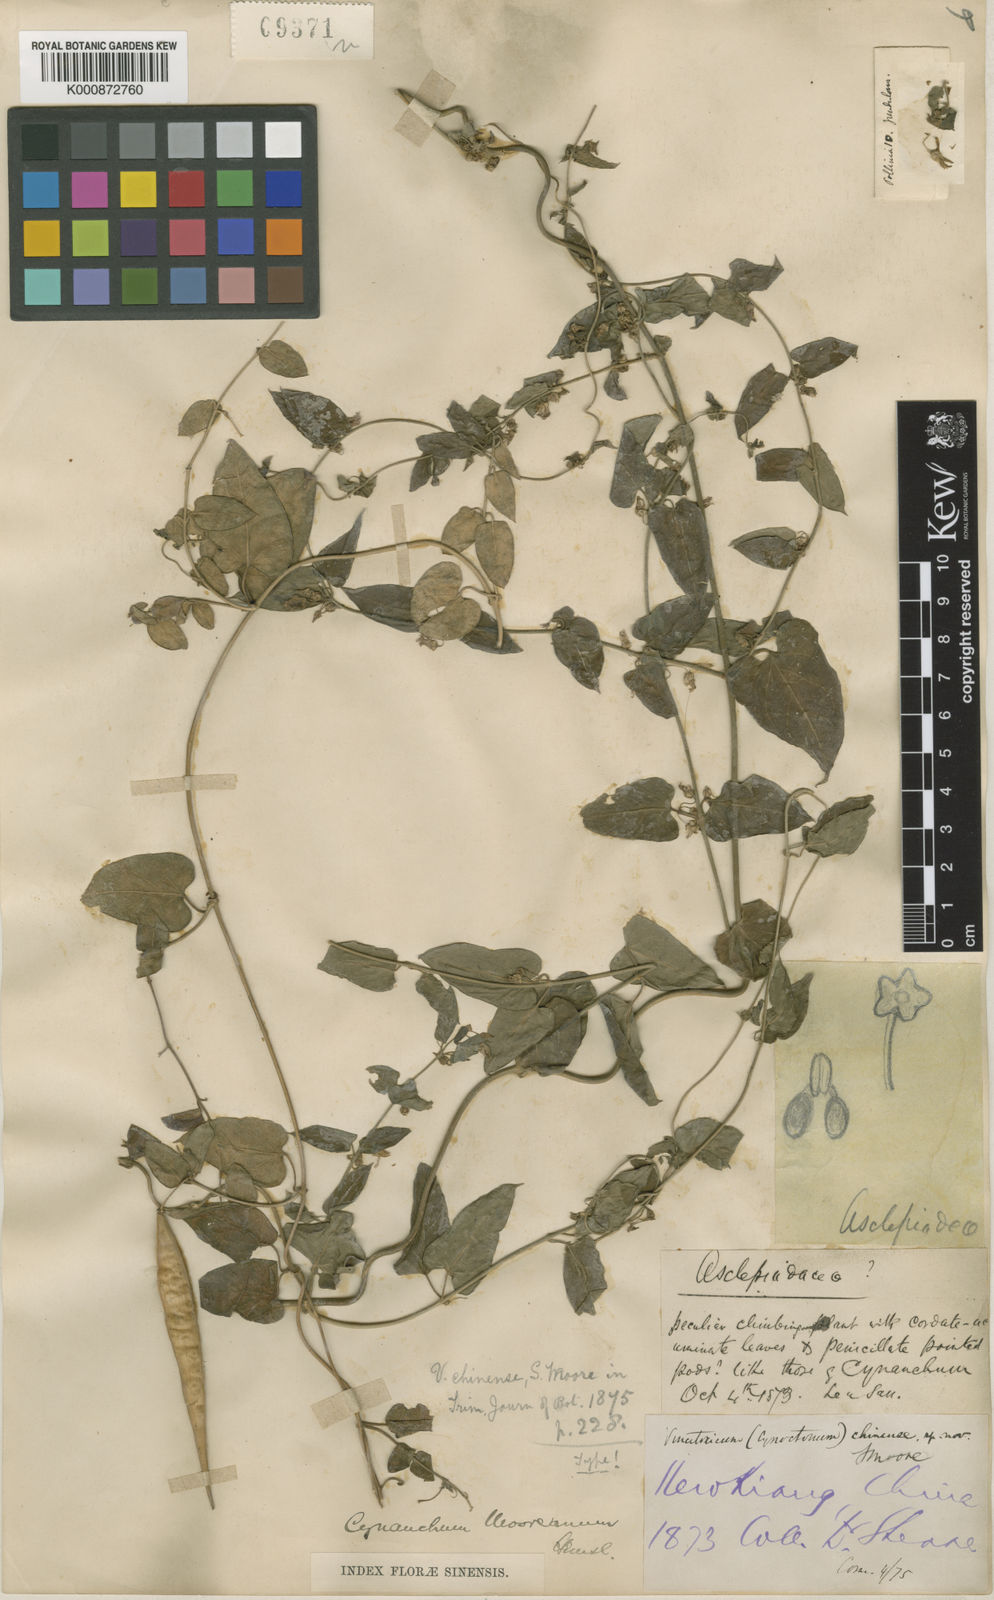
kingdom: Plantae
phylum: Tracheophyta
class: Magnoliopsida
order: Gentianales
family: Apocynaceae
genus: Cynanchum
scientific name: Cynanchum mooreanum
